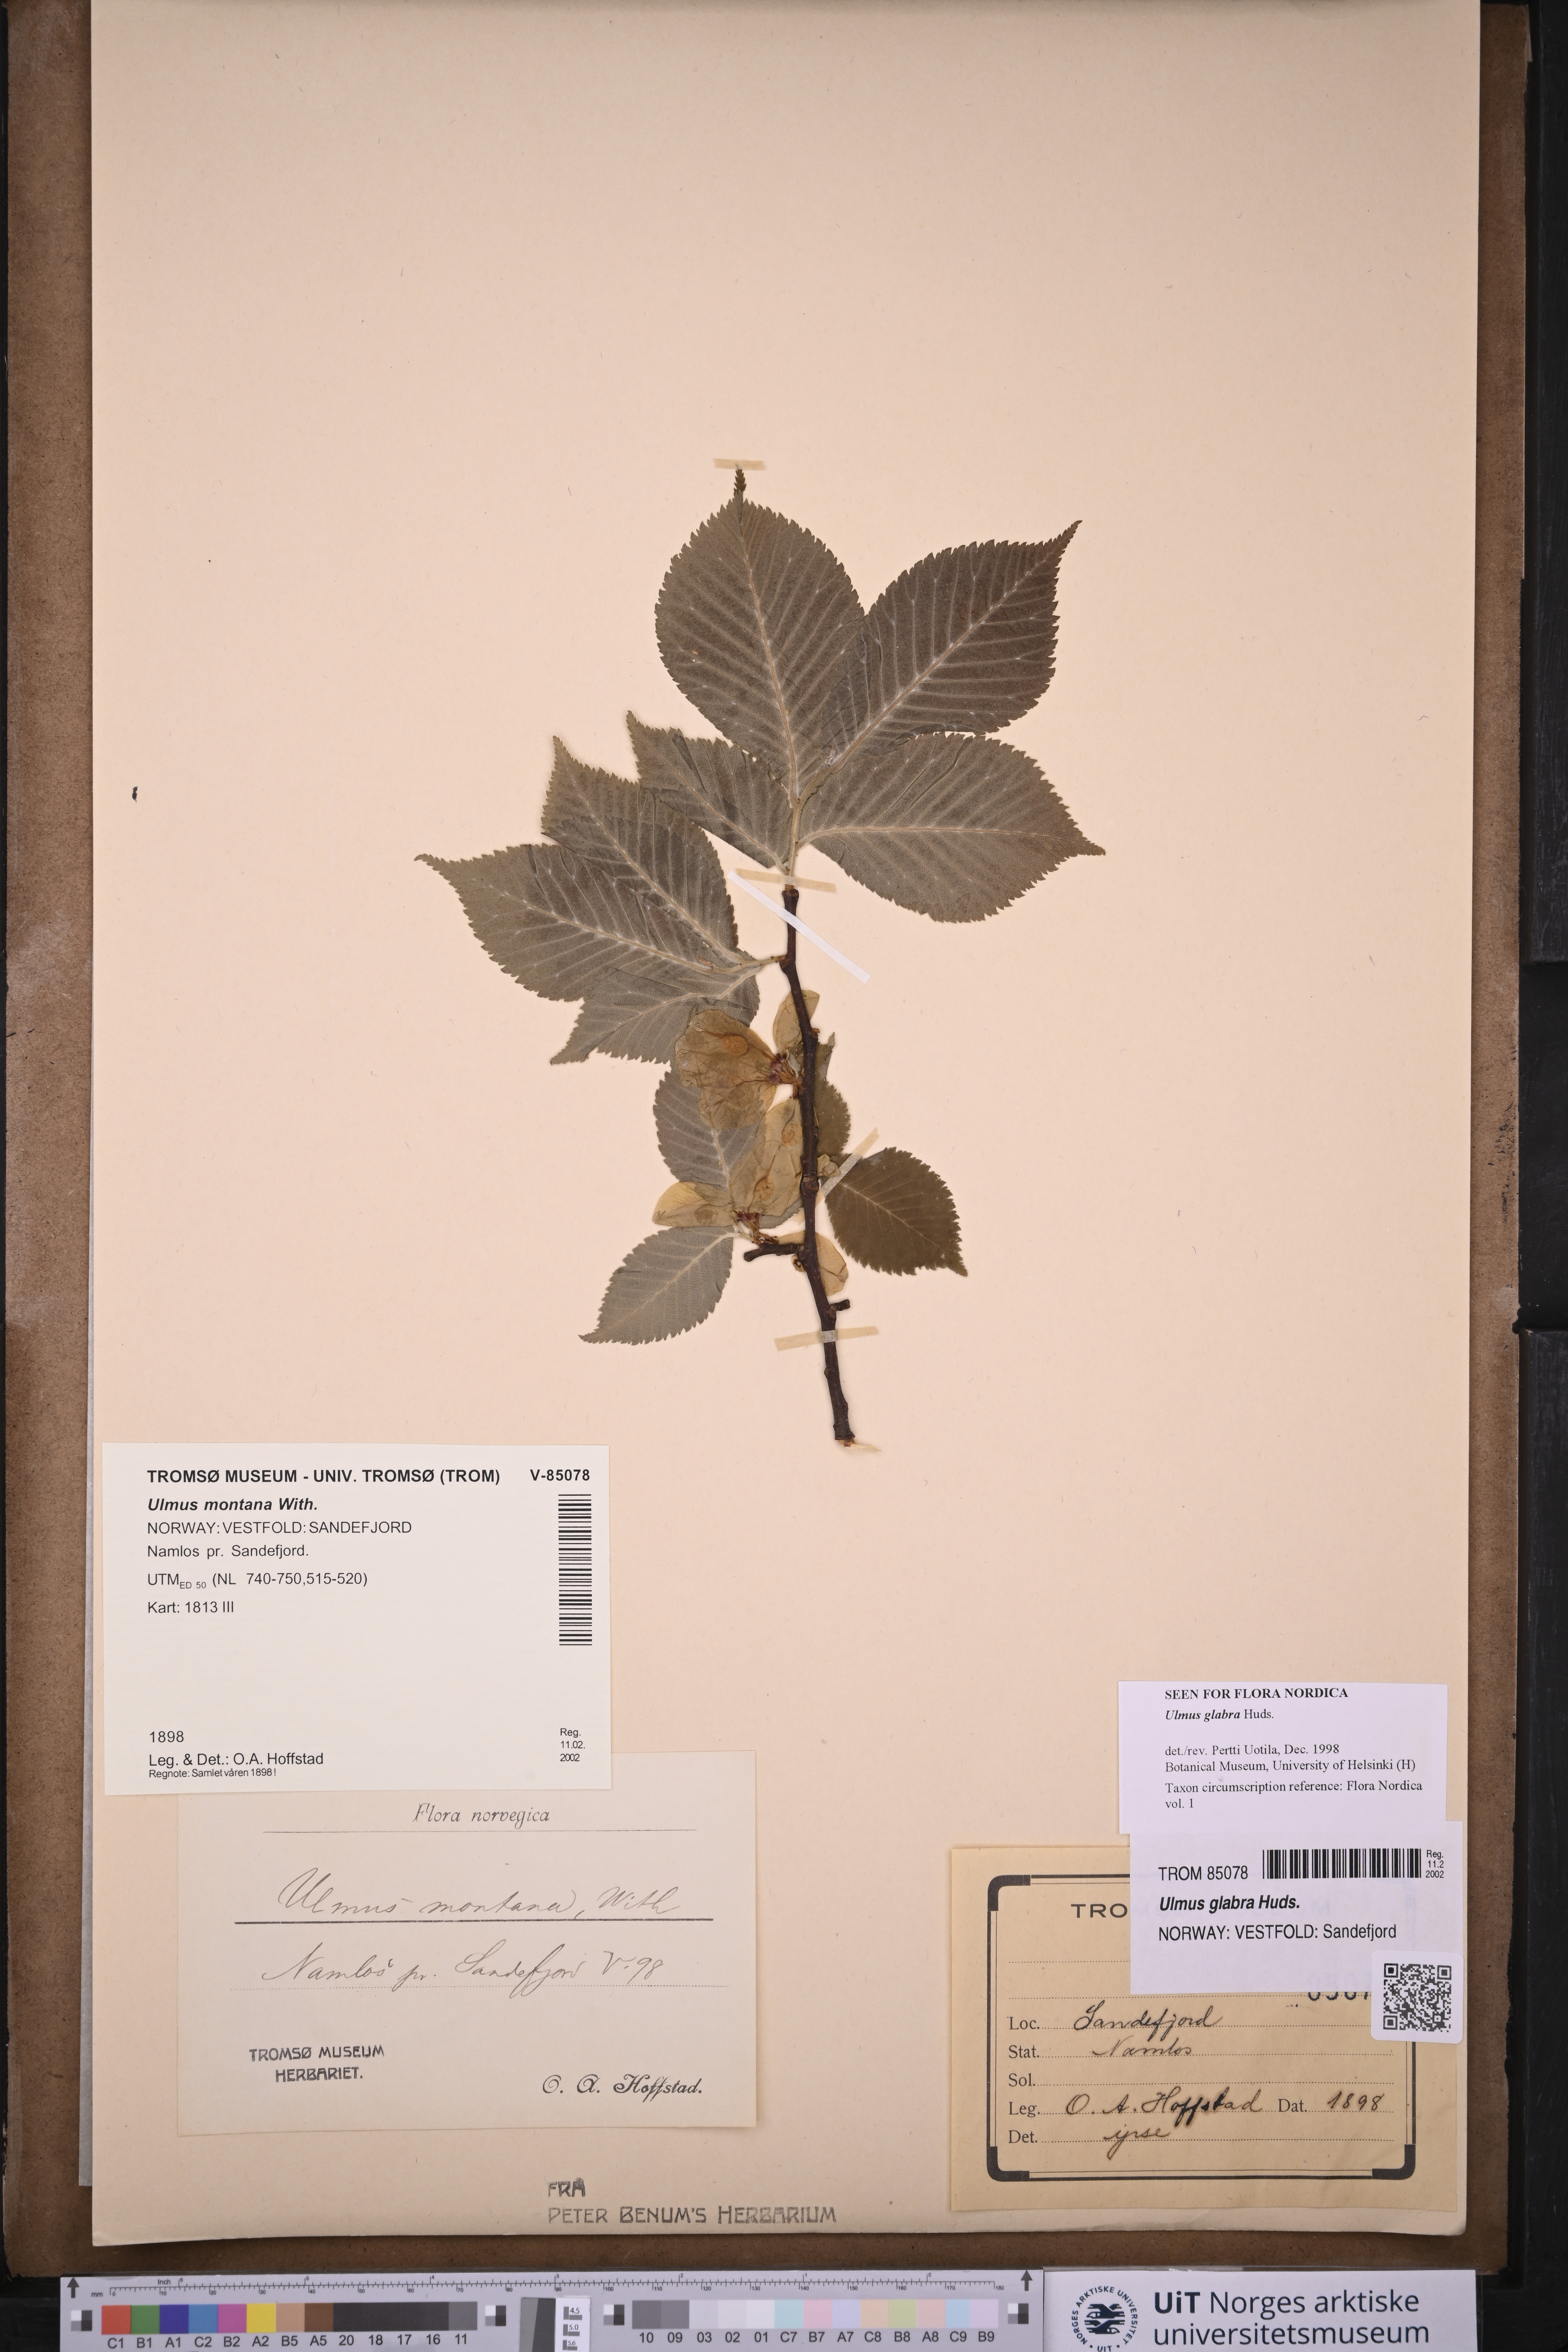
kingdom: Plantae
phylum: Tracheophyta
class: Magnoliopsida
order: Rosales
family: Ulmaceae
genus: Ulmus
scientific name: Ulmus glabra
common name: Wych elm
